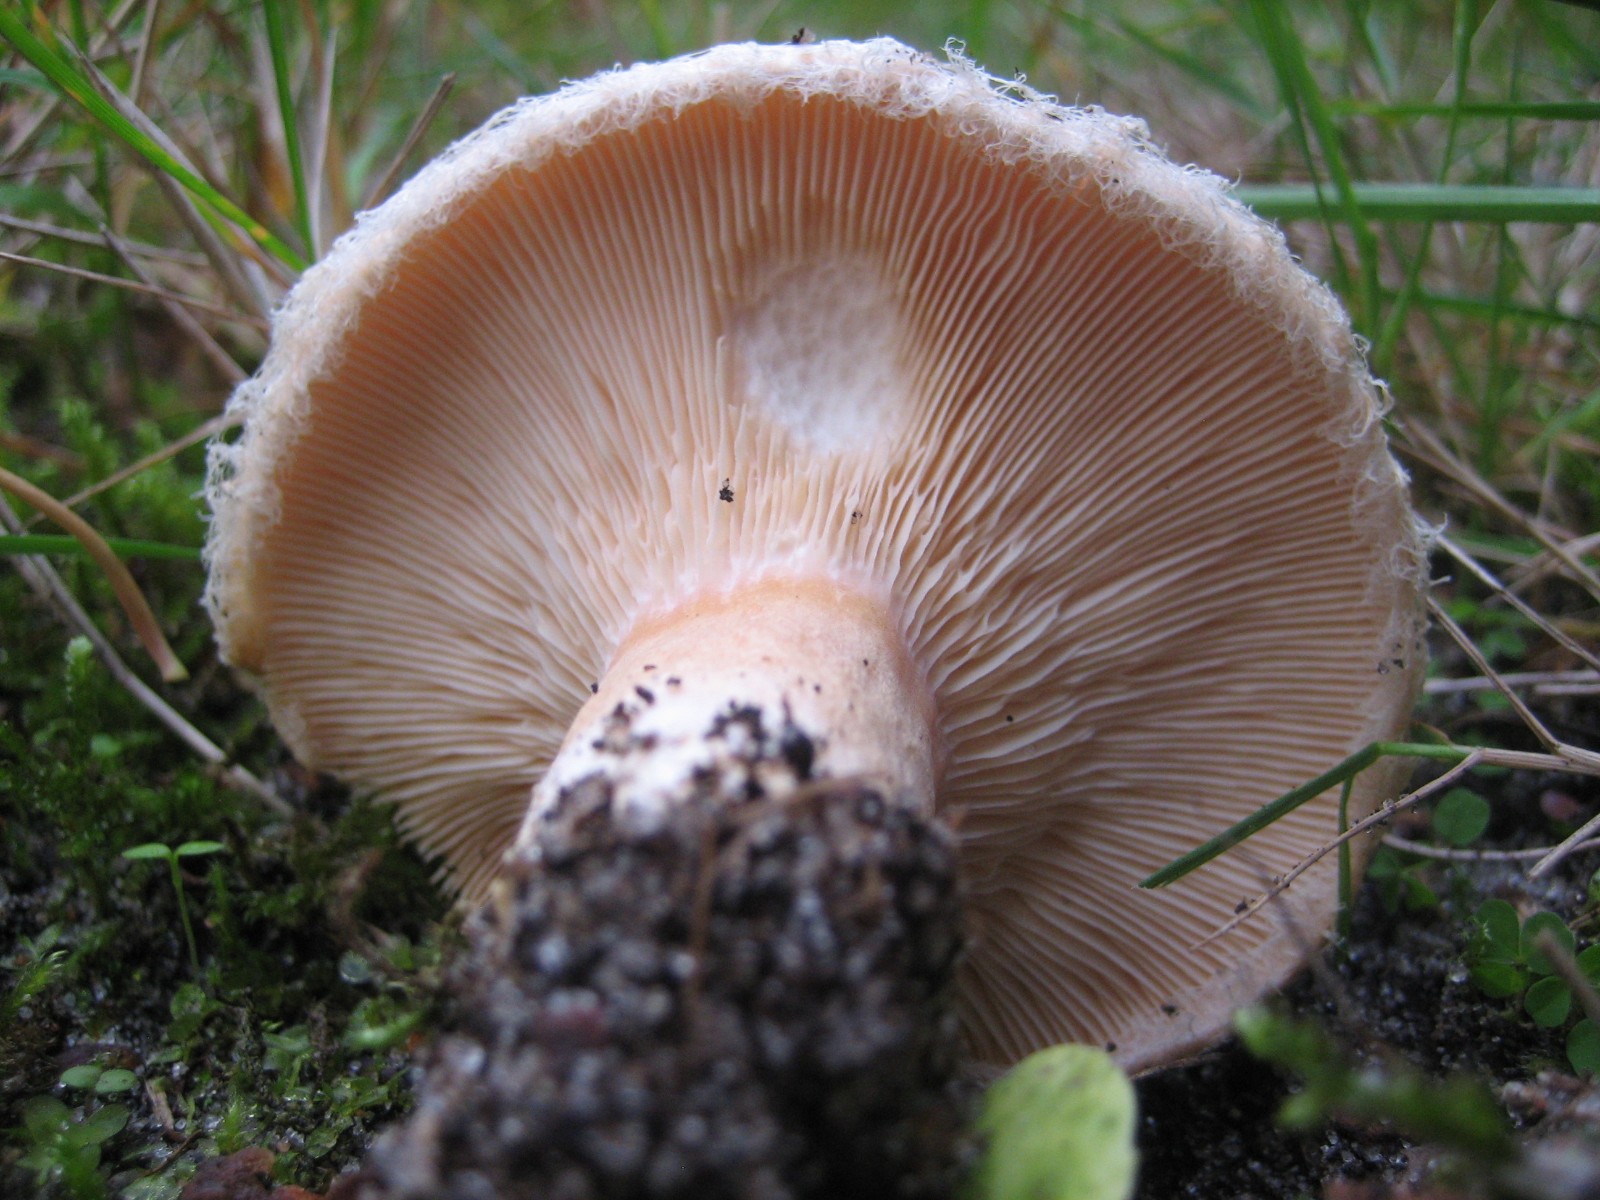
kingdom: Fungi
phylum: Basidiomycota
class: Agaricomycetes
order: Russulales
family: Russulaceae
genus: Lactarius
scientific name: Lactarius pubescens
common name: dunet mælkehat
